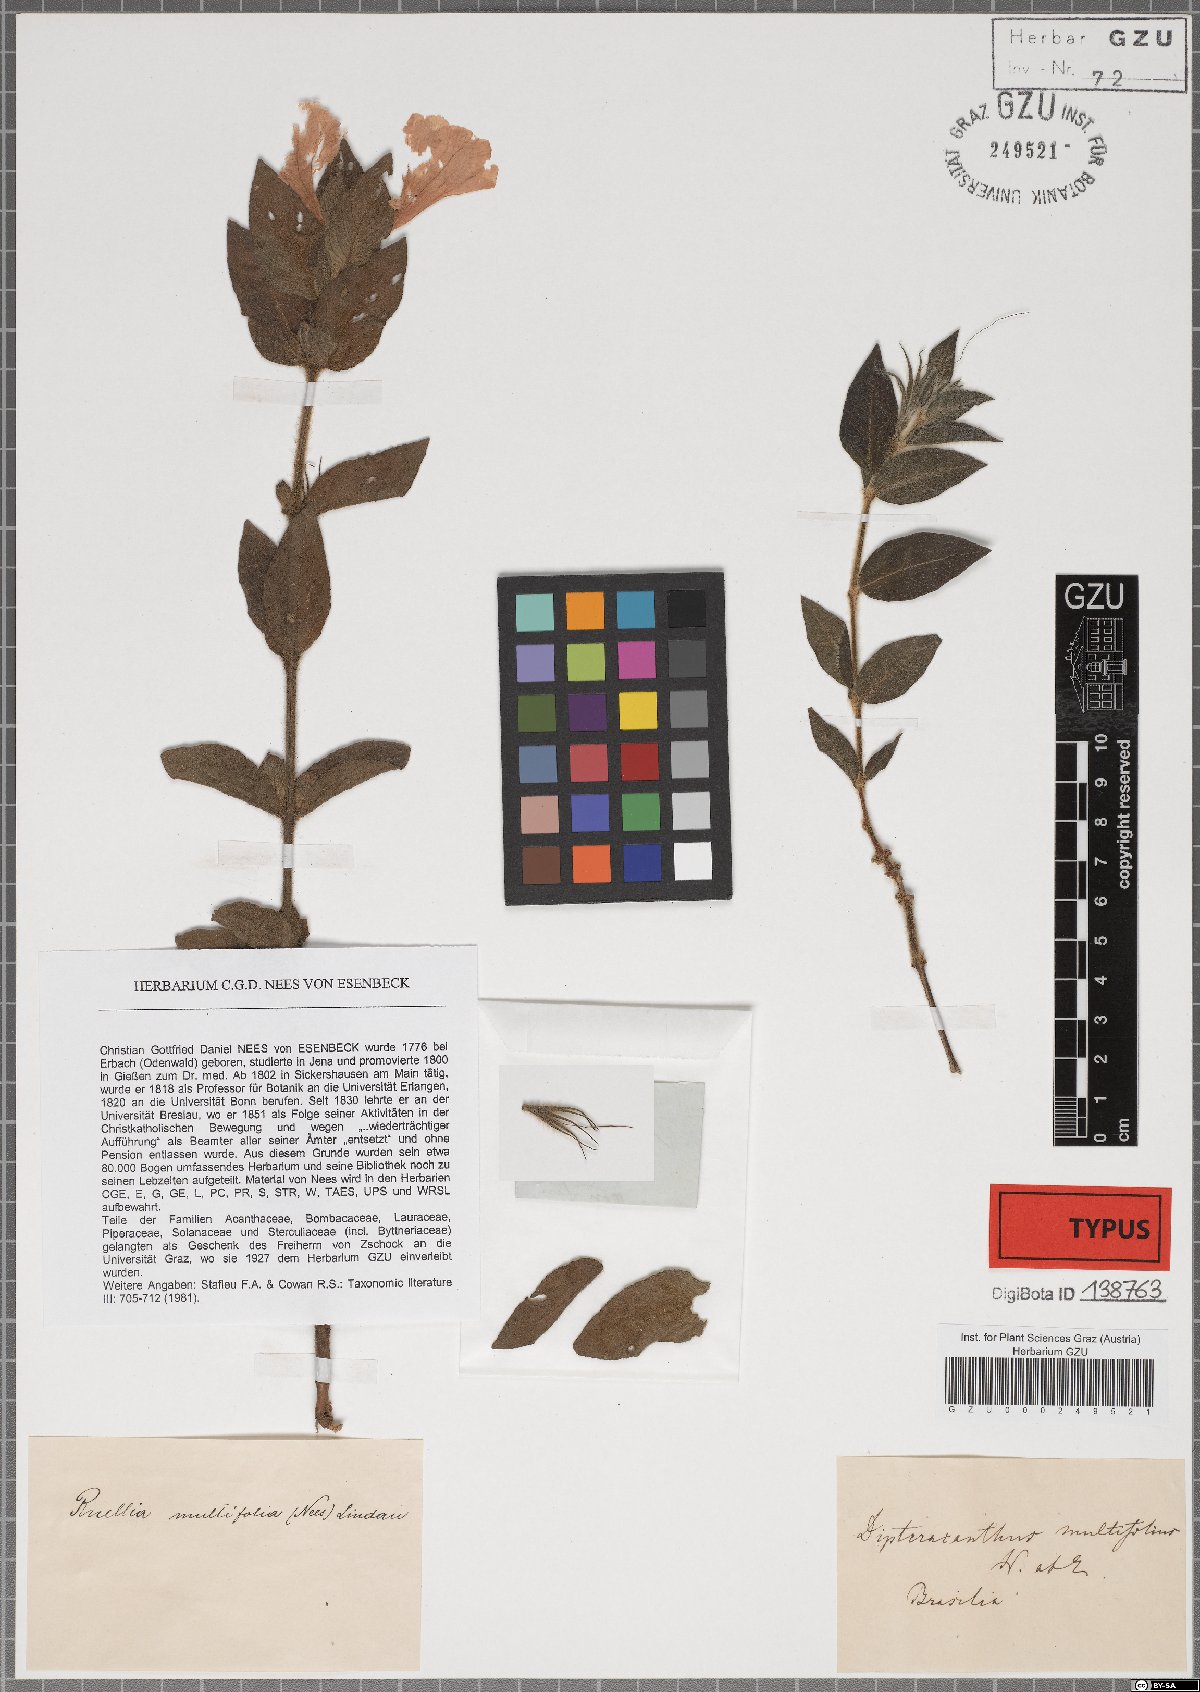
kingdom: Plantae
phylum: Tracheophyta
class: Magnoliopsida
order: Lamiales
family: Acanthaceae
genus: Ruellia
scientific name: Ruellia multifolia
